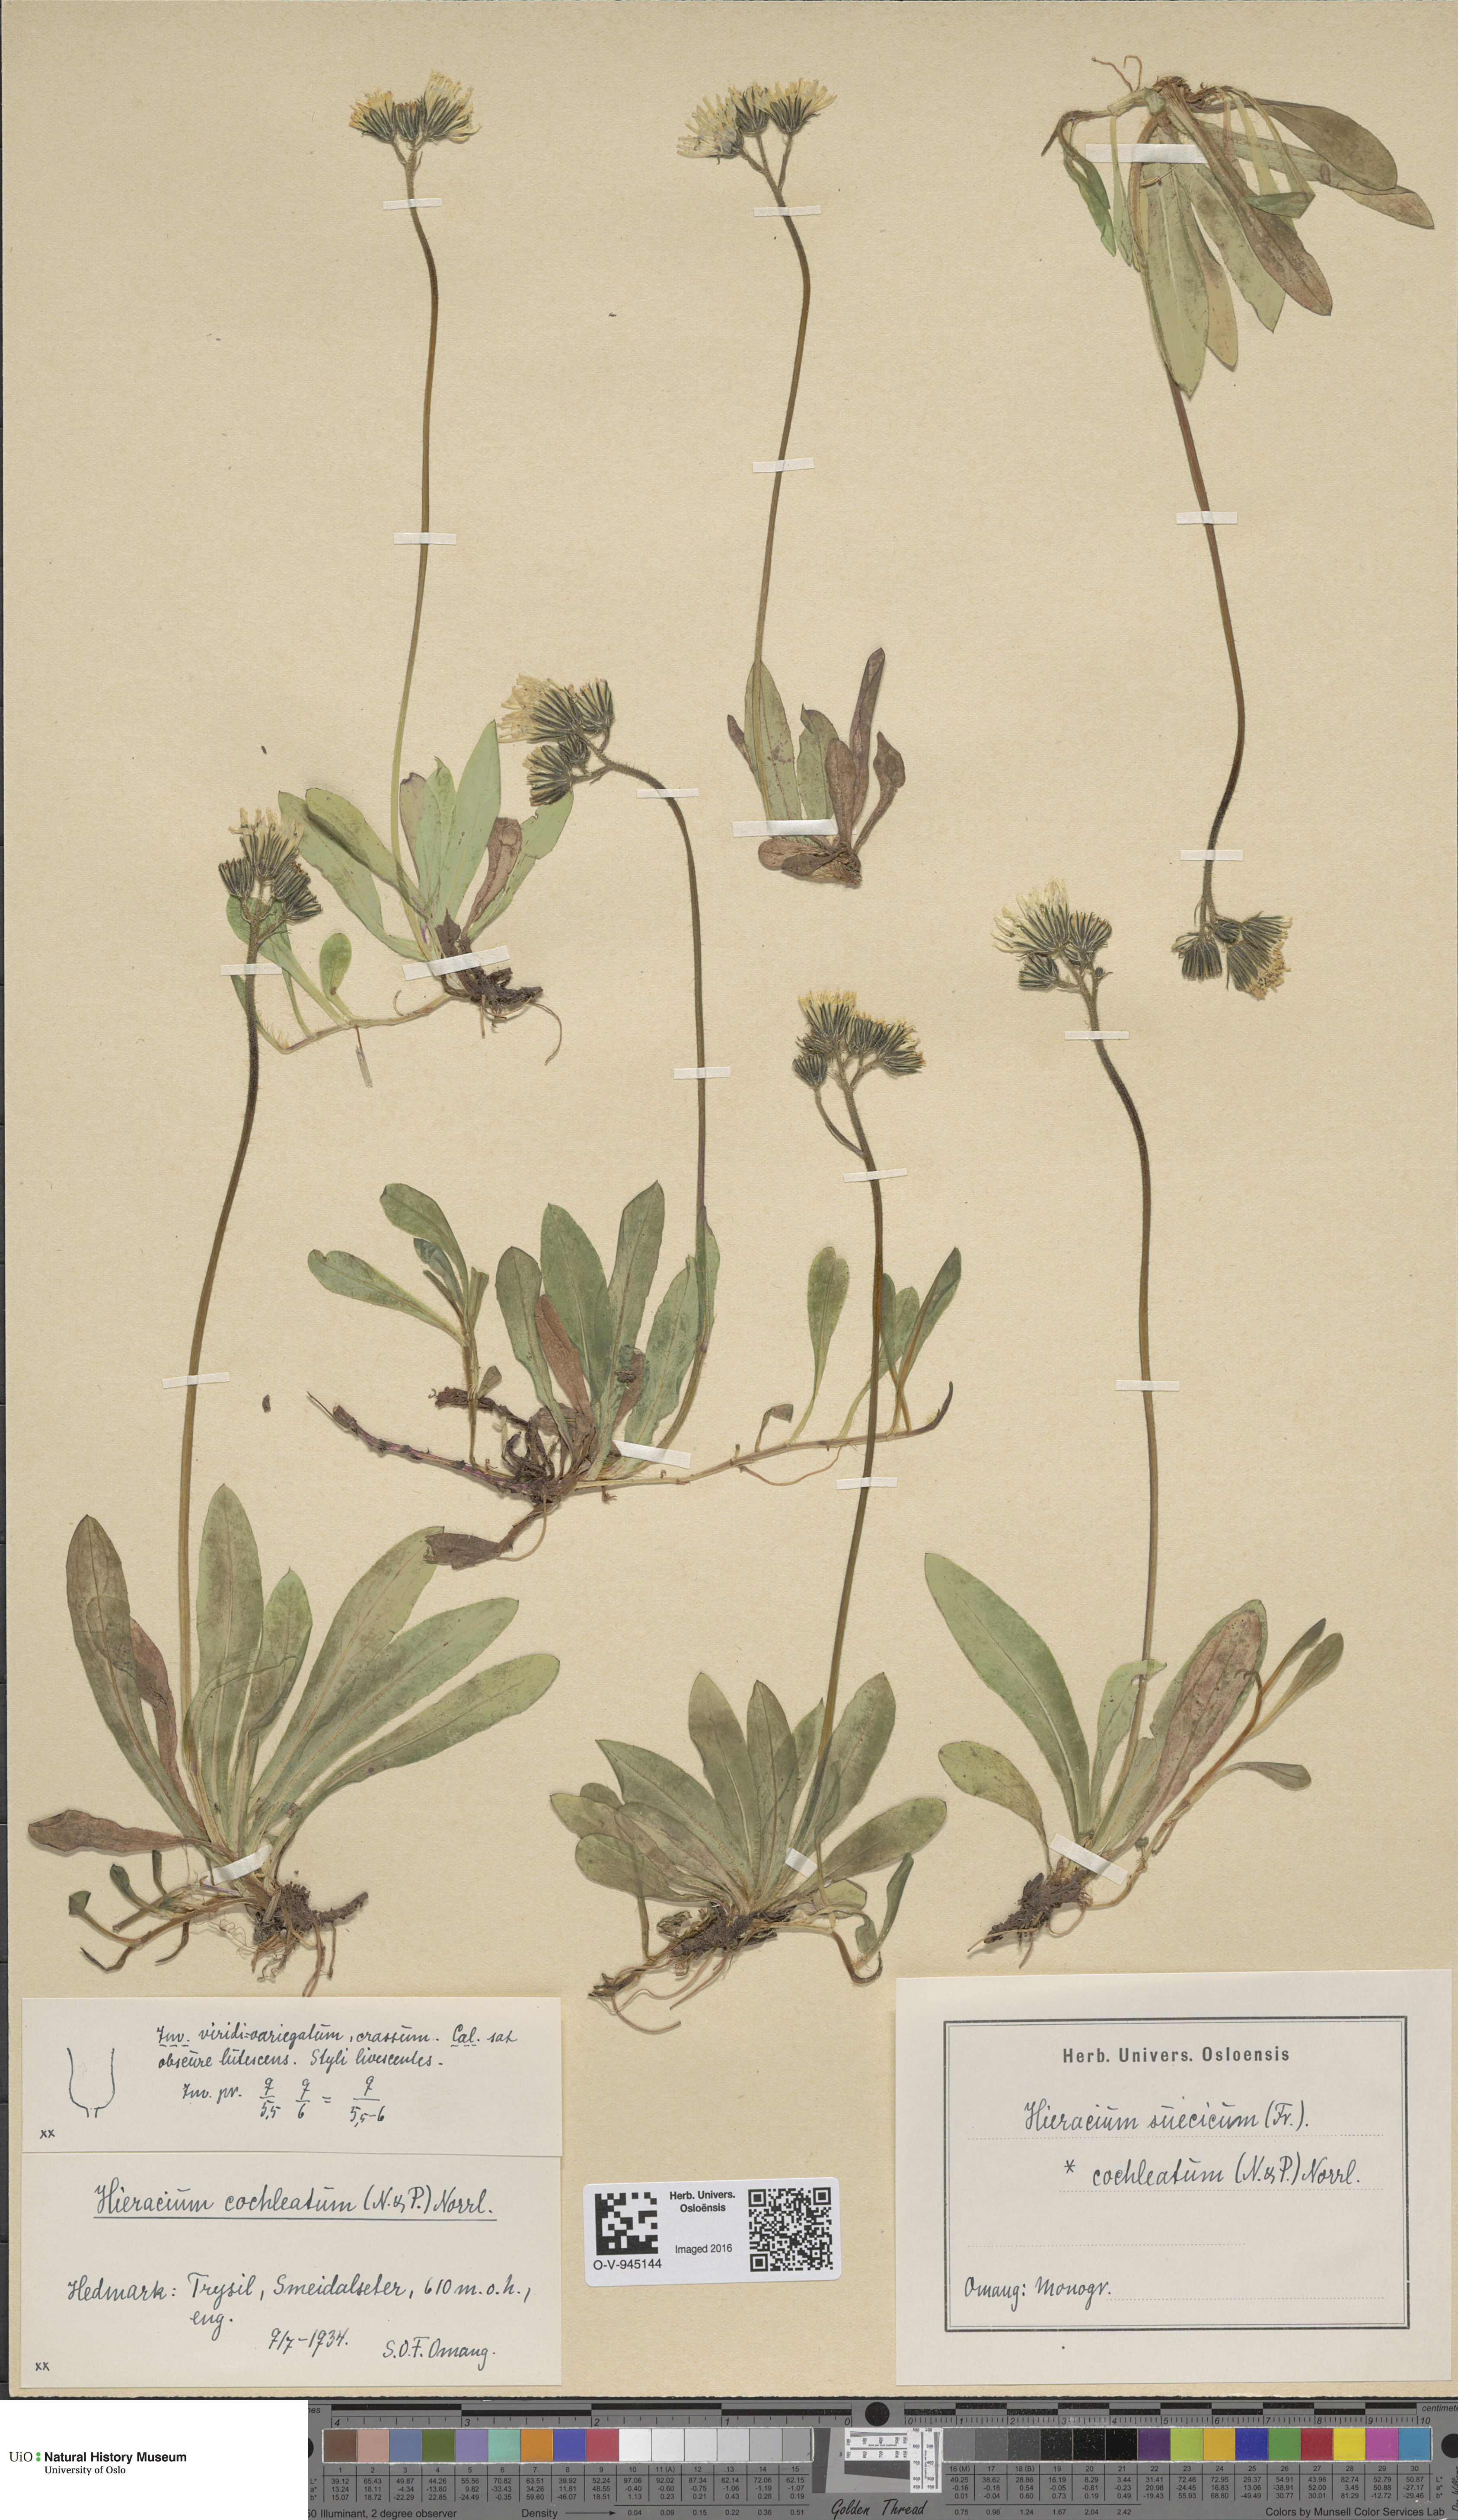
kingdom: Plantae
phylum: Tracheophyta
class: Magnoliopsida
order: Asterales
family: Asteraceae
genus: Pilosella
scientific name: Pilosella dubia
